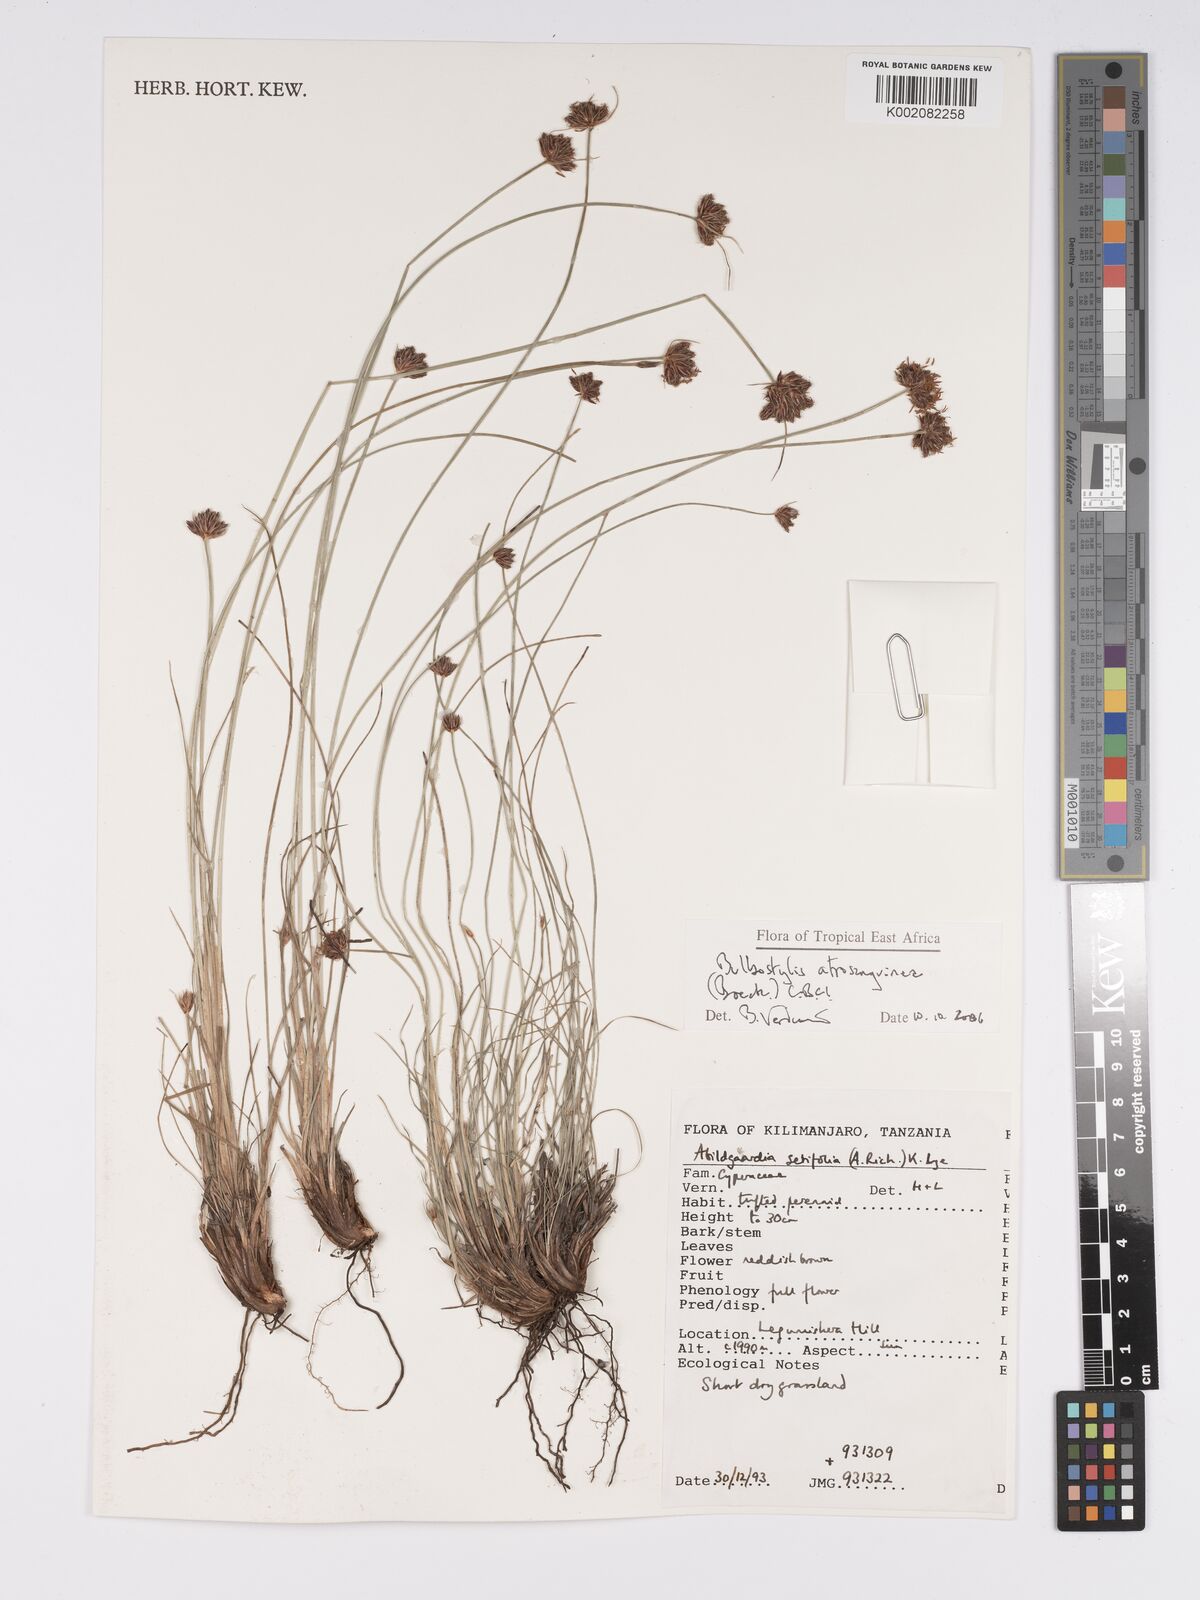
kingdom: Plantae
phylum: Tracheophyta
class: Liliopsida
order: Poales
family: Cyperaceae
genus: Bulbostylis
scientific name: Bulbostylis atrosanguinea
